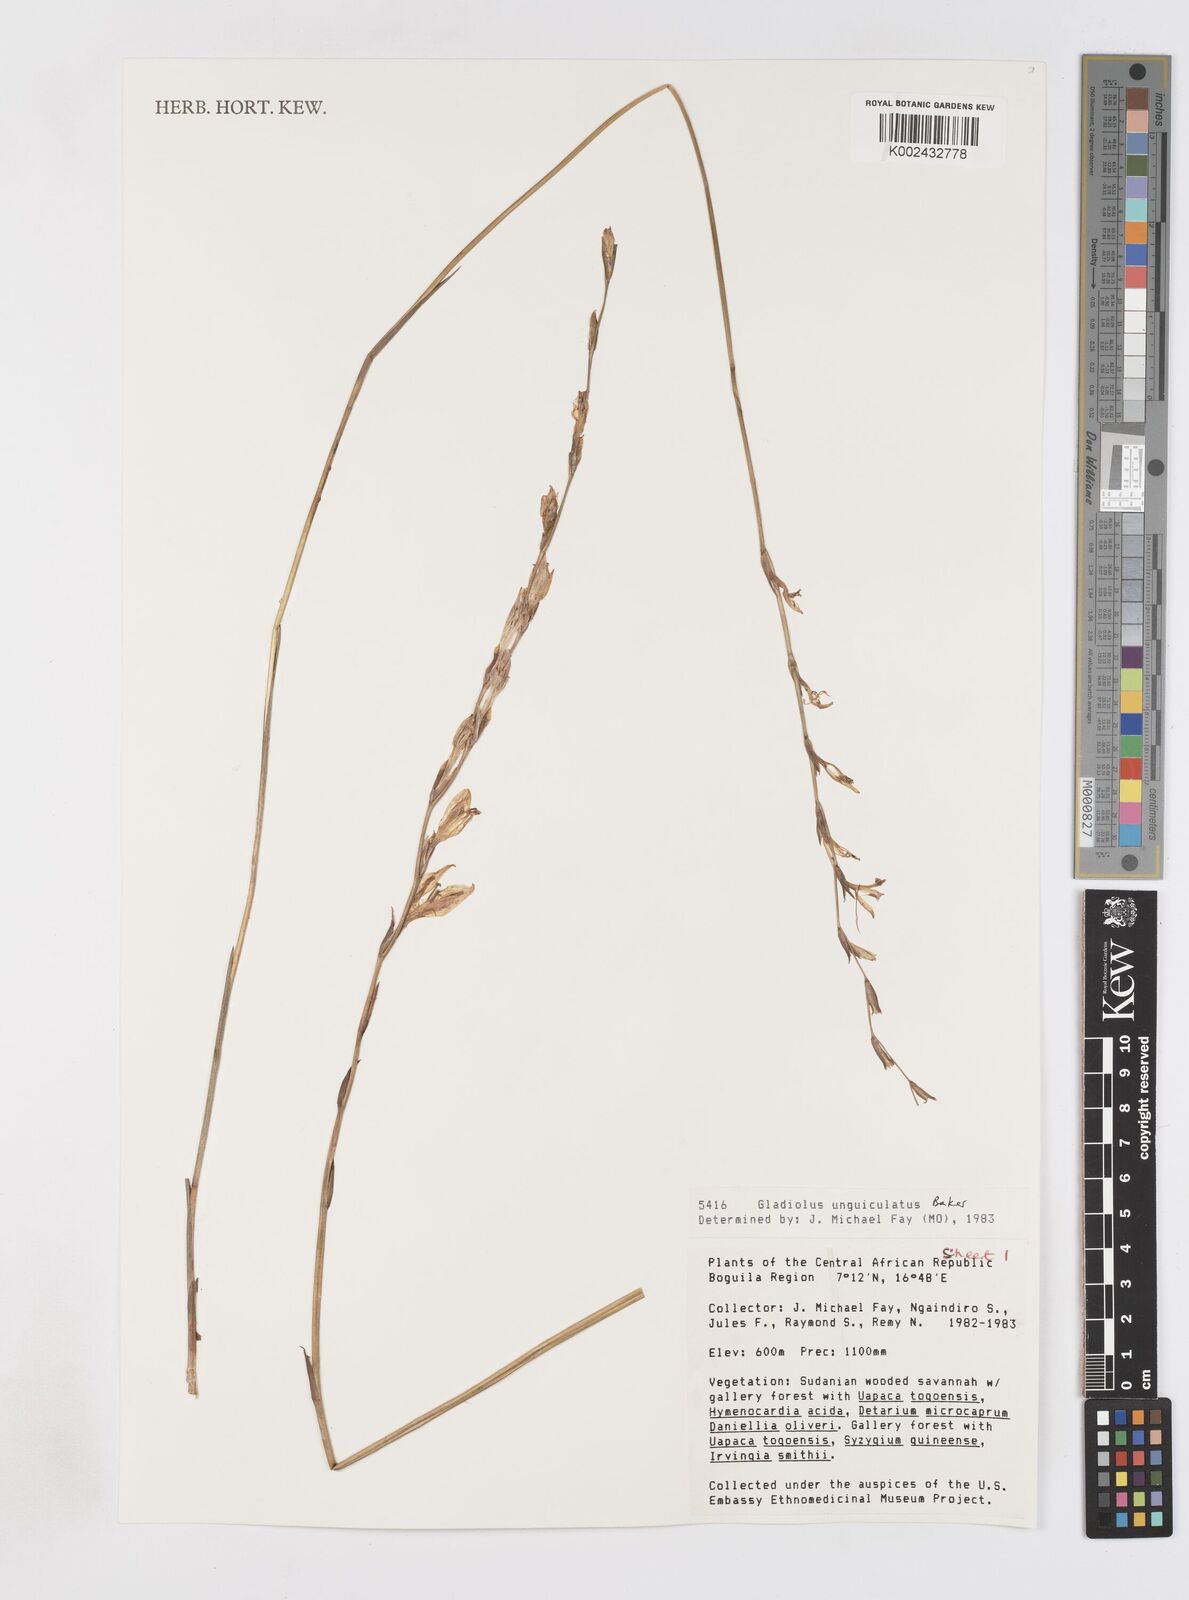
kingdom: Plantae
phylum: Tracheophyta
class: Liliopsida
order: Asparagales
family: Iridaceae
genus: Gladiolus
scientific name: Gladiolus unguiculatus
